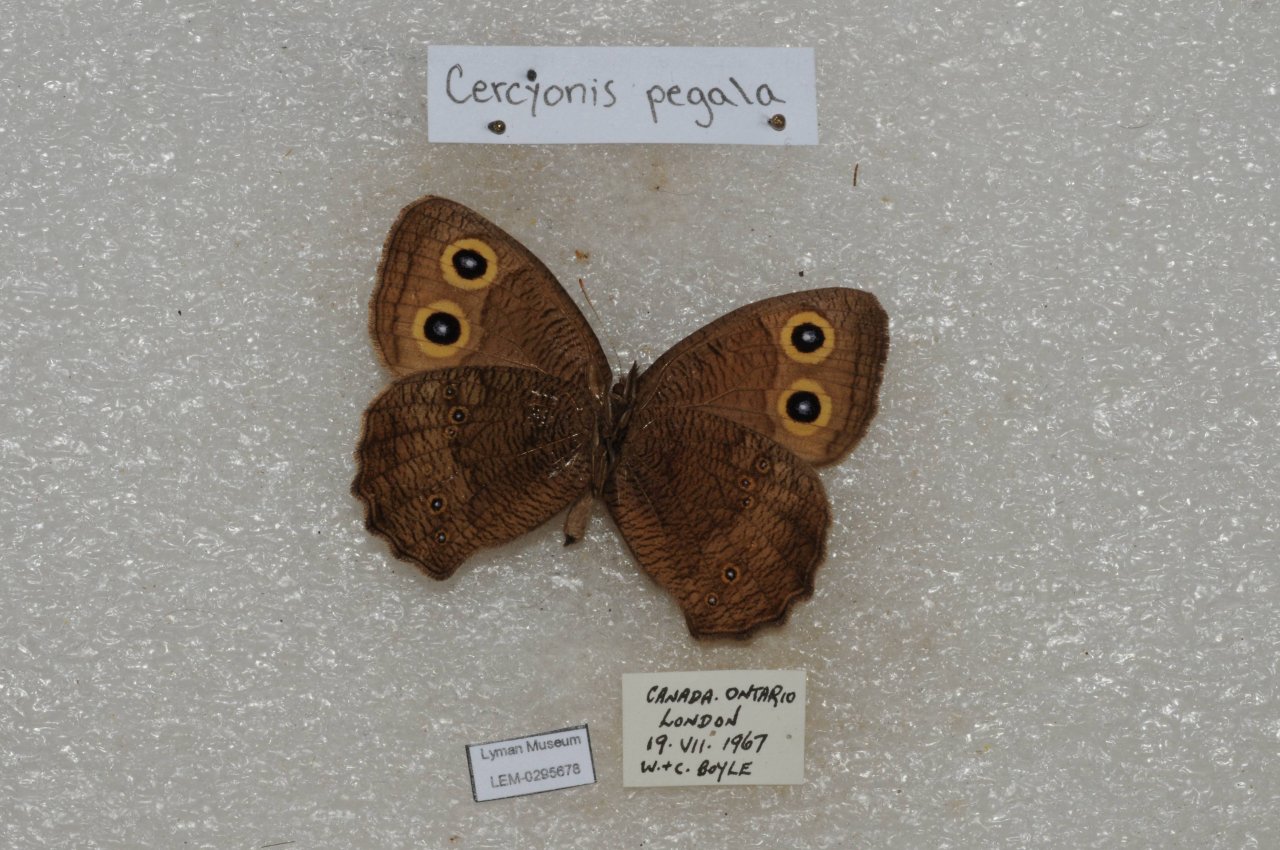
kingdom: Animalia
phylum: Arthropoda
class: Insecta
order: Lepidoptera
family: Nymphalidae
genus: Cercyonis
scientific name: Cercyonis pegala
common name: Common Wood-Nymph
